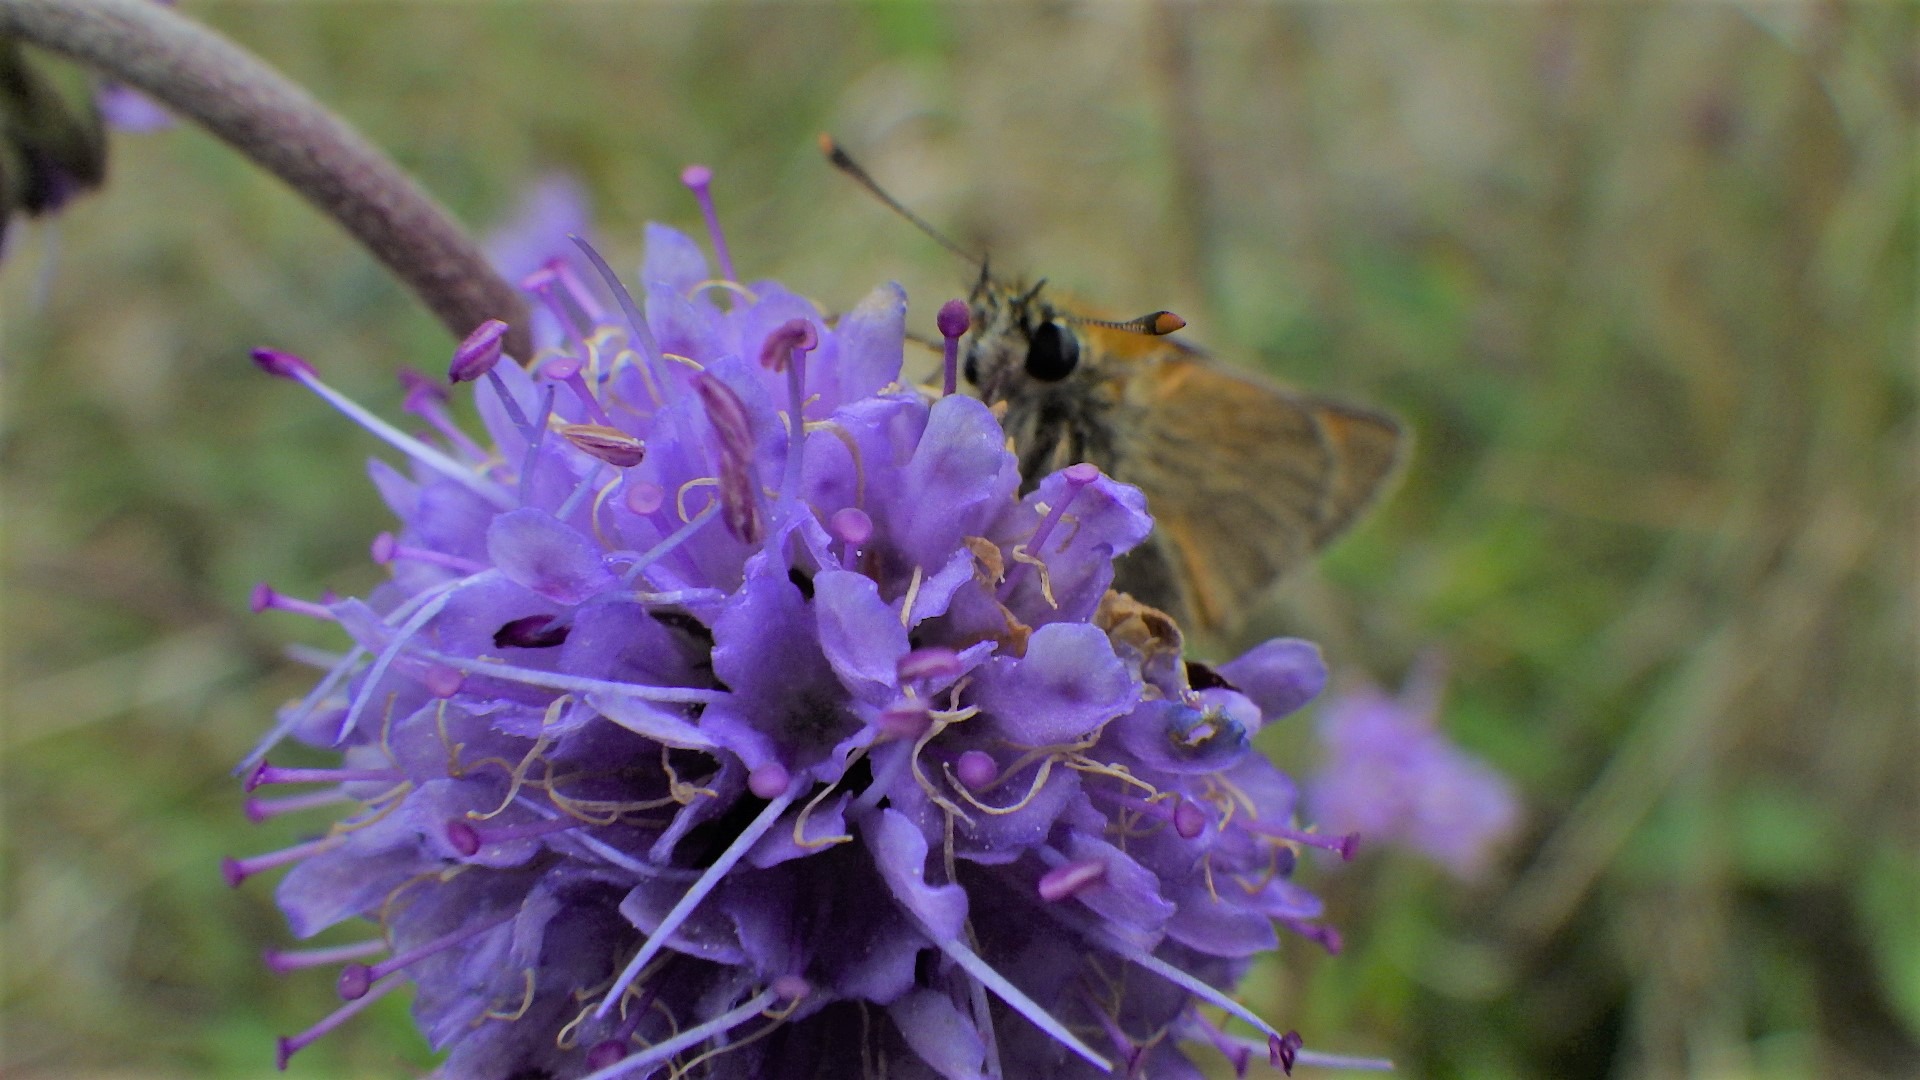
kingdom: Animalia
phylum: Arthropoda
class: Insecta
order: Lepidoptera
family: Hesperiidae
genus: Thymelicus
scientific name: Thymelicus sylvestris
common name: Skråstregbredpande
